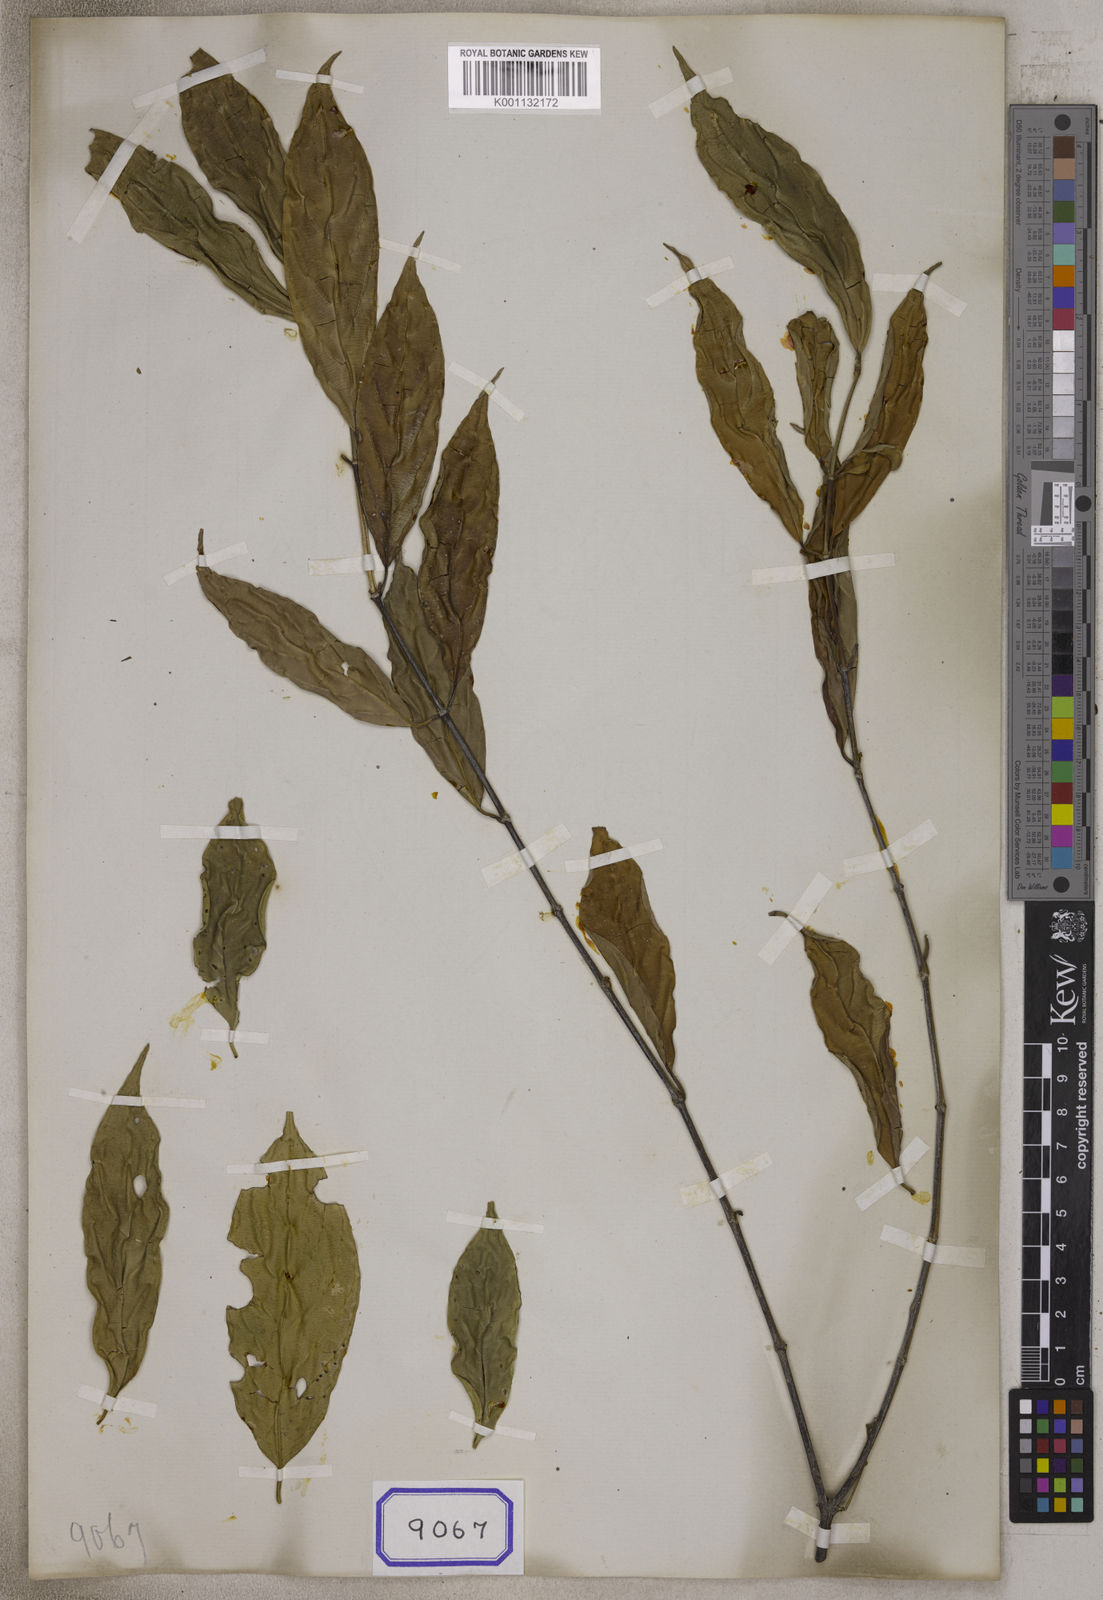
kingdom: Plantae
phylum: Tracheophyta
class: Magnoliopsida
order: Gentianales
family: Rubiaceae
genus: Urophyllum
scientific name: Urophyllum streptopodium
